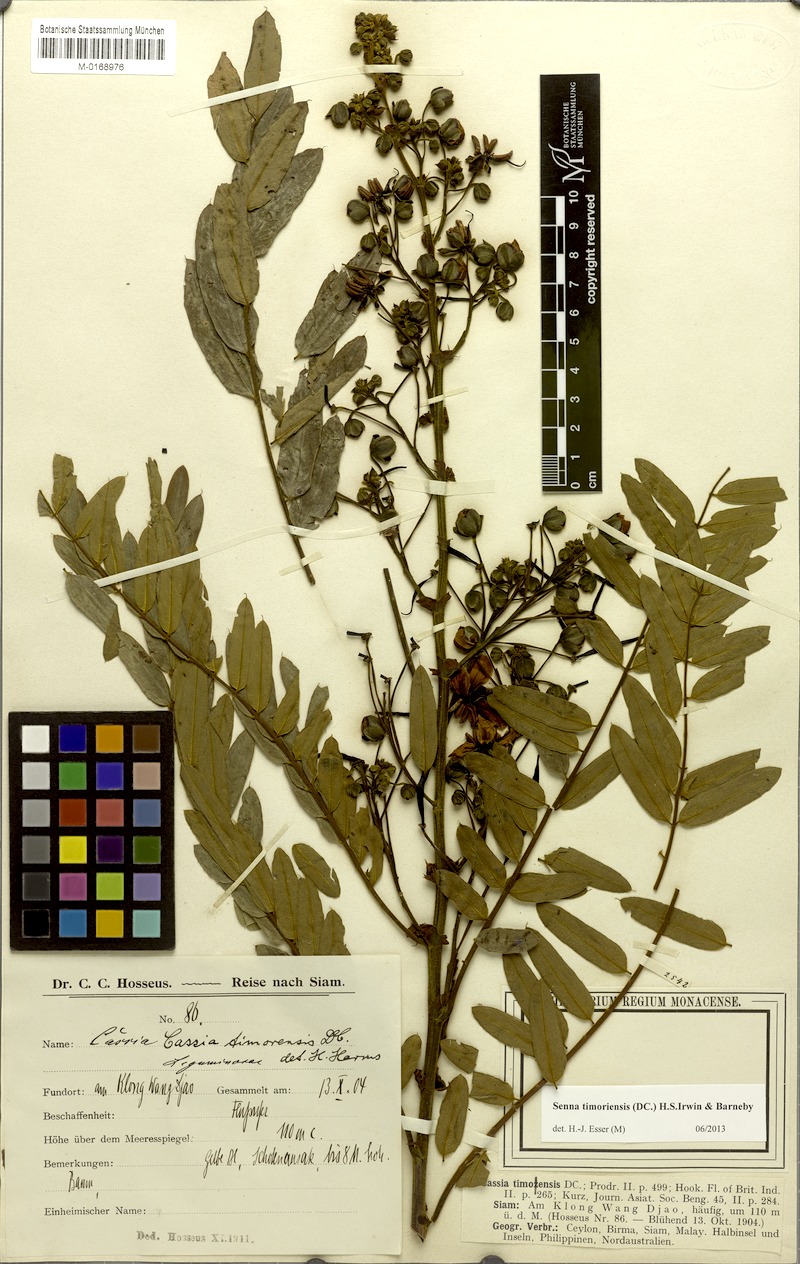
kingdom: Plantae
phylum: Tracheophyta
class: Magnoliopsida
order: Fabales
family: Fabaceae
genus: Senna
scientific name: Senna timoriensis
